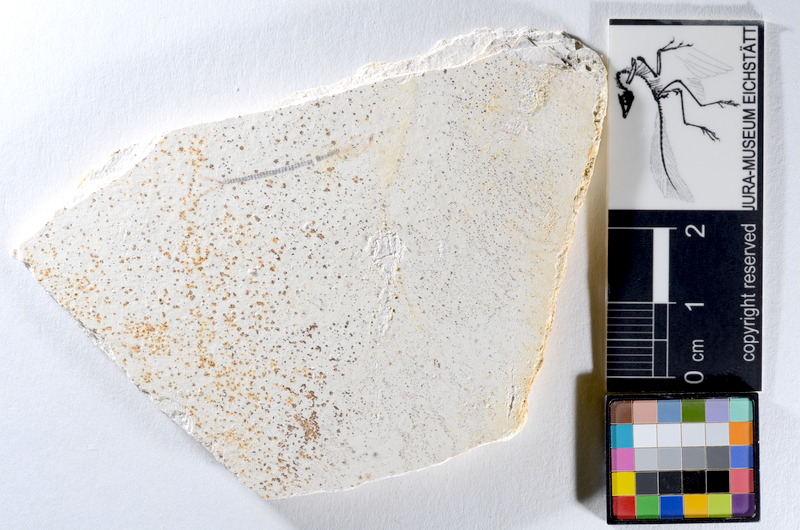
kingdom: Animalia
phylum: Chordata
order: Salmoniformes
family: Orthogonikleithridae
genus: Orthogonikleithrus
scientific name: Orthogonikleithrus hoelli
